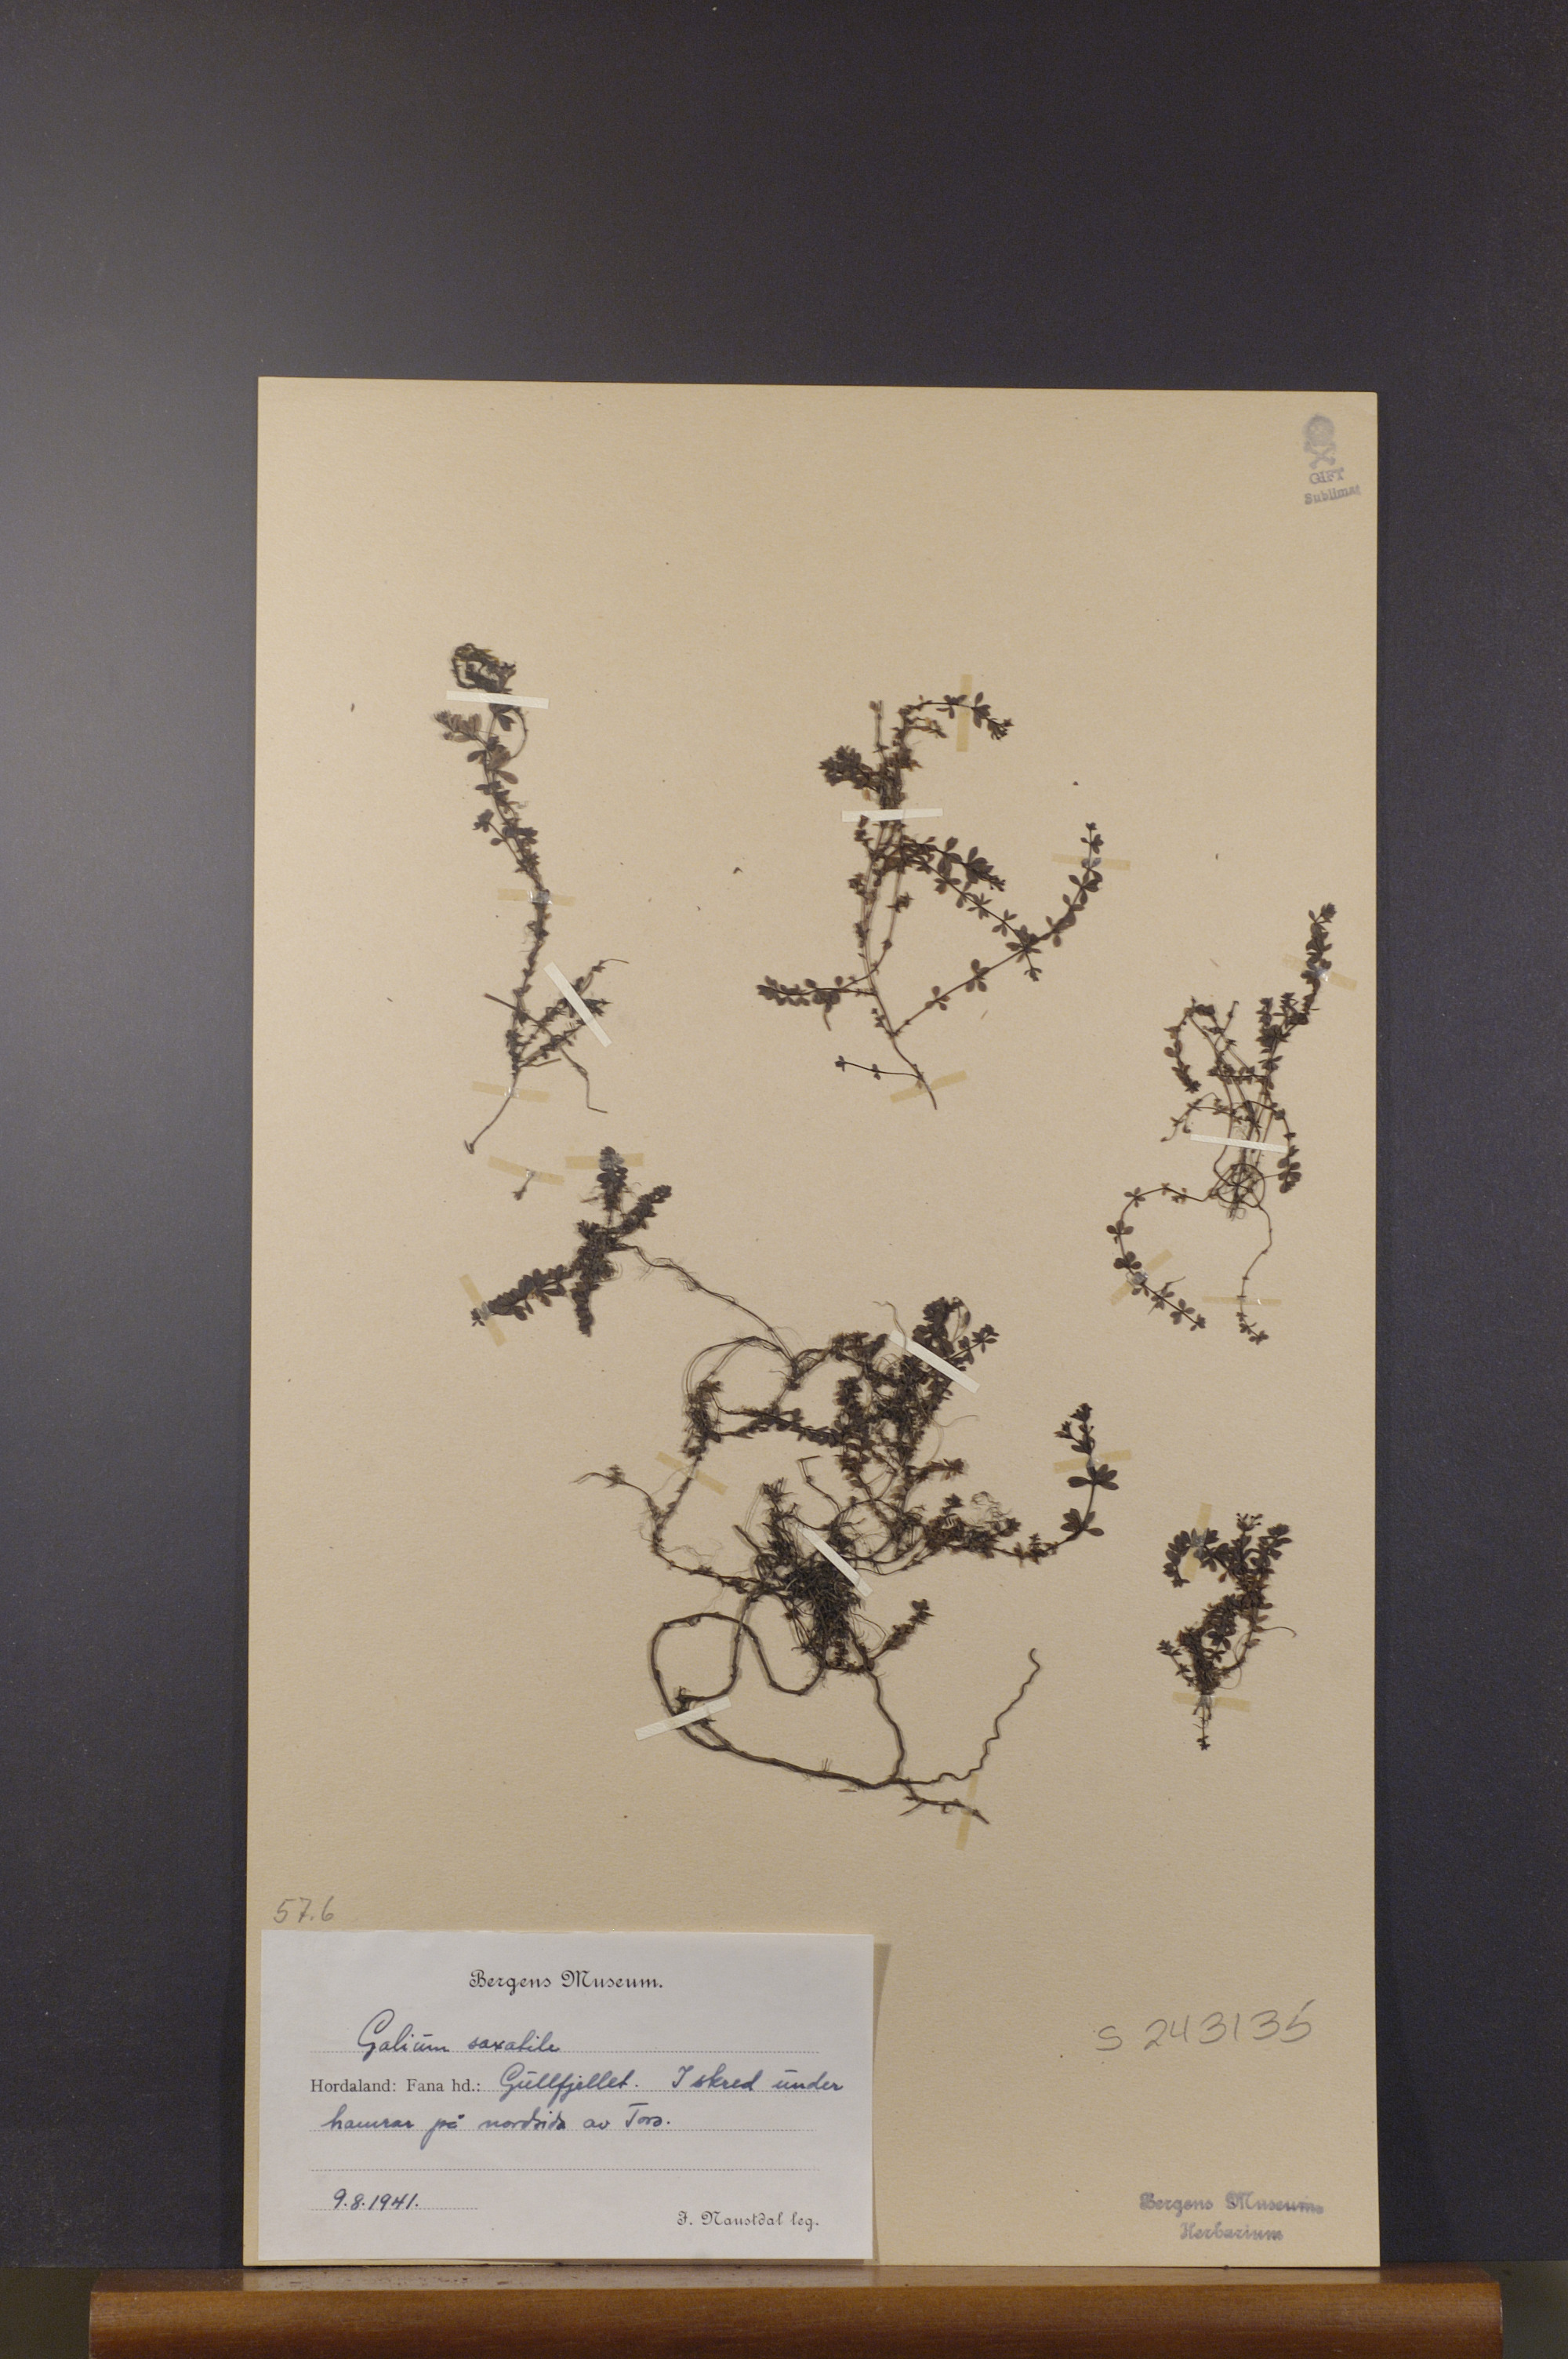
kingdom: Plantae
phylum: Tracheophyta
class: Magnoliopsida
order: Gentianales
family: Rubiaceae
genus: Galium
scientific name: Galium saxatile
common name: Heath bedstraw
